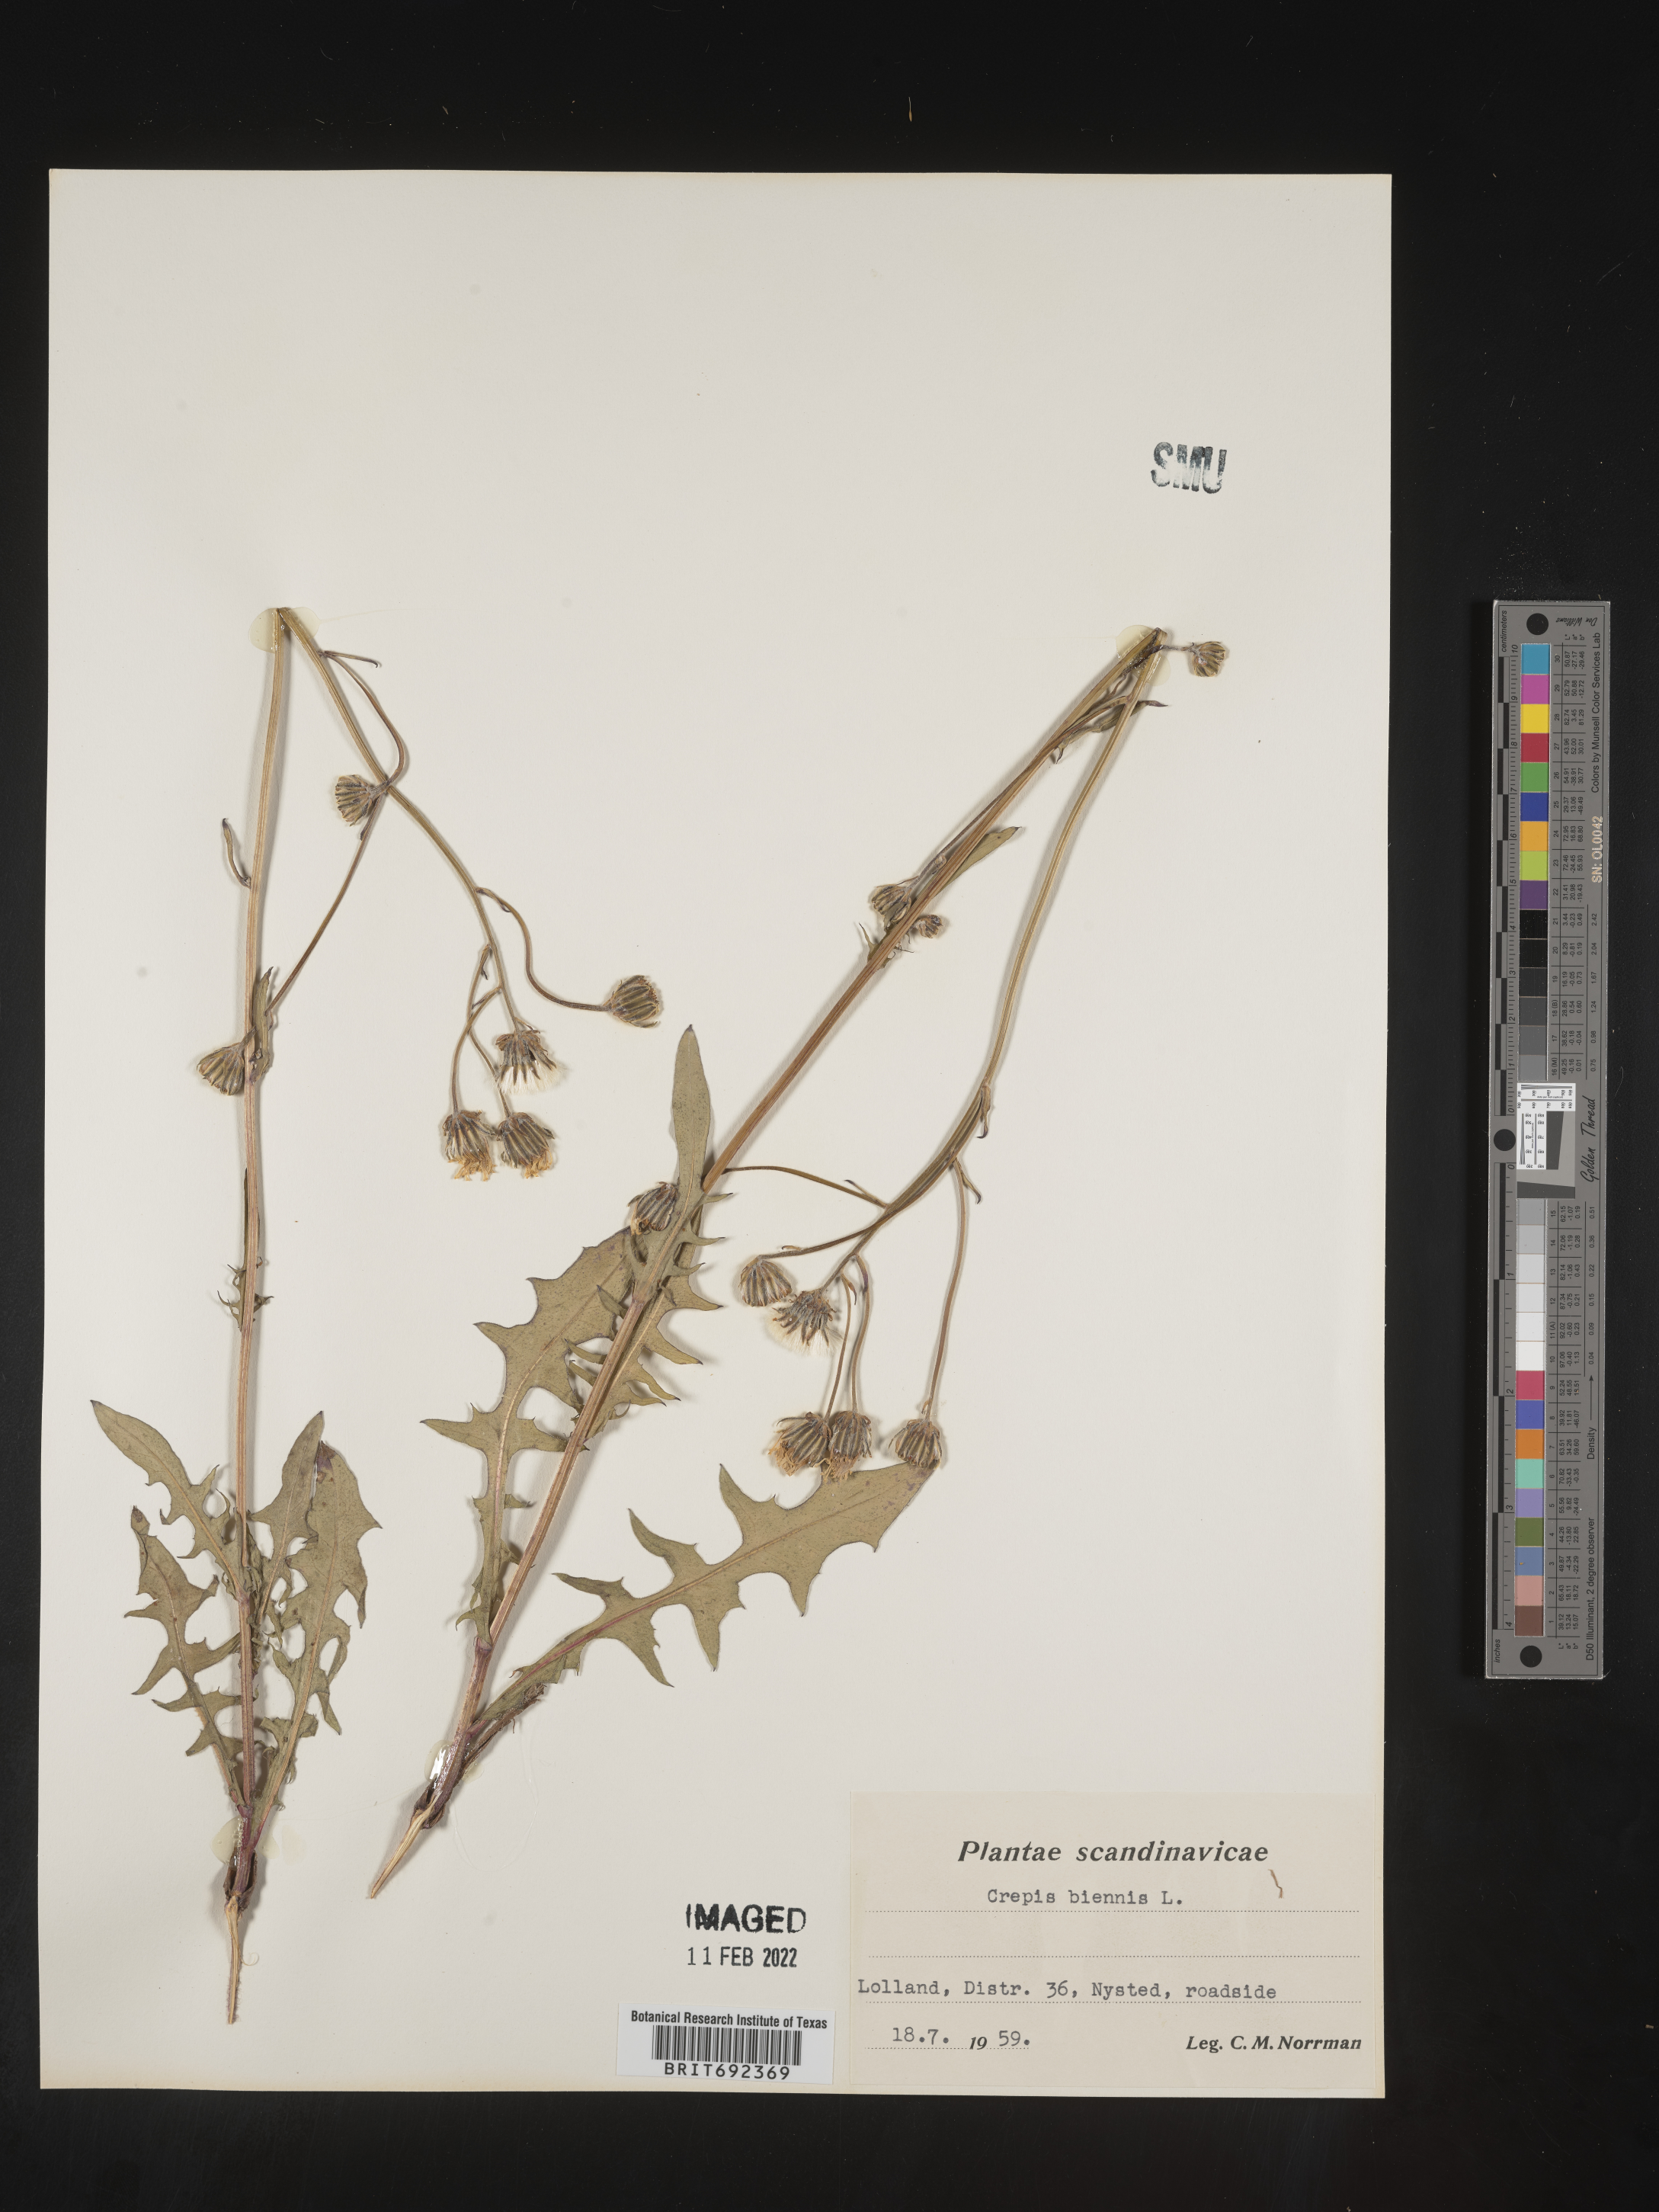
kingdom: Plantae
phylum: Tracheophyta
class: Magnoliopsida
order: Asterales
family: Asteraceae
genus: Crepis
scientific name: Crepis
